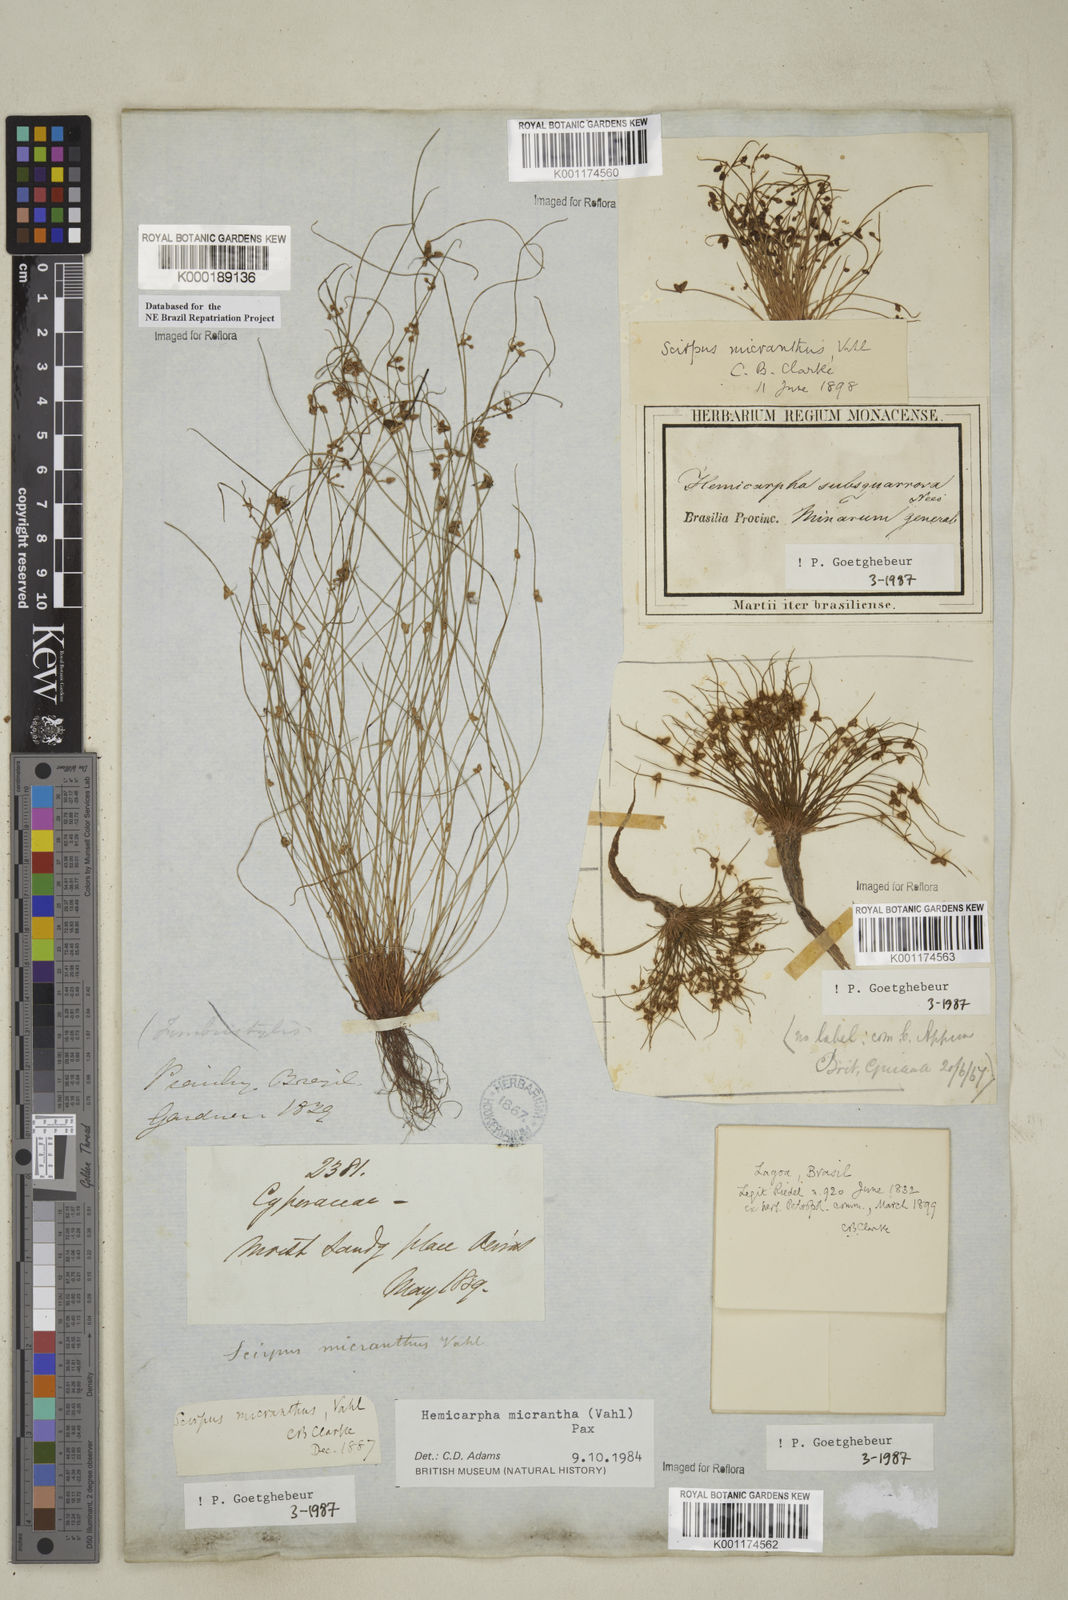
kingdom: Plantae
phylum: Tracheophyta
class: Liliopsida
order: Poales
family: Cyperaceae
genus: Cyperus
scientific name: Cyperus subsquarrosus
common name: Dwarf bulrush
